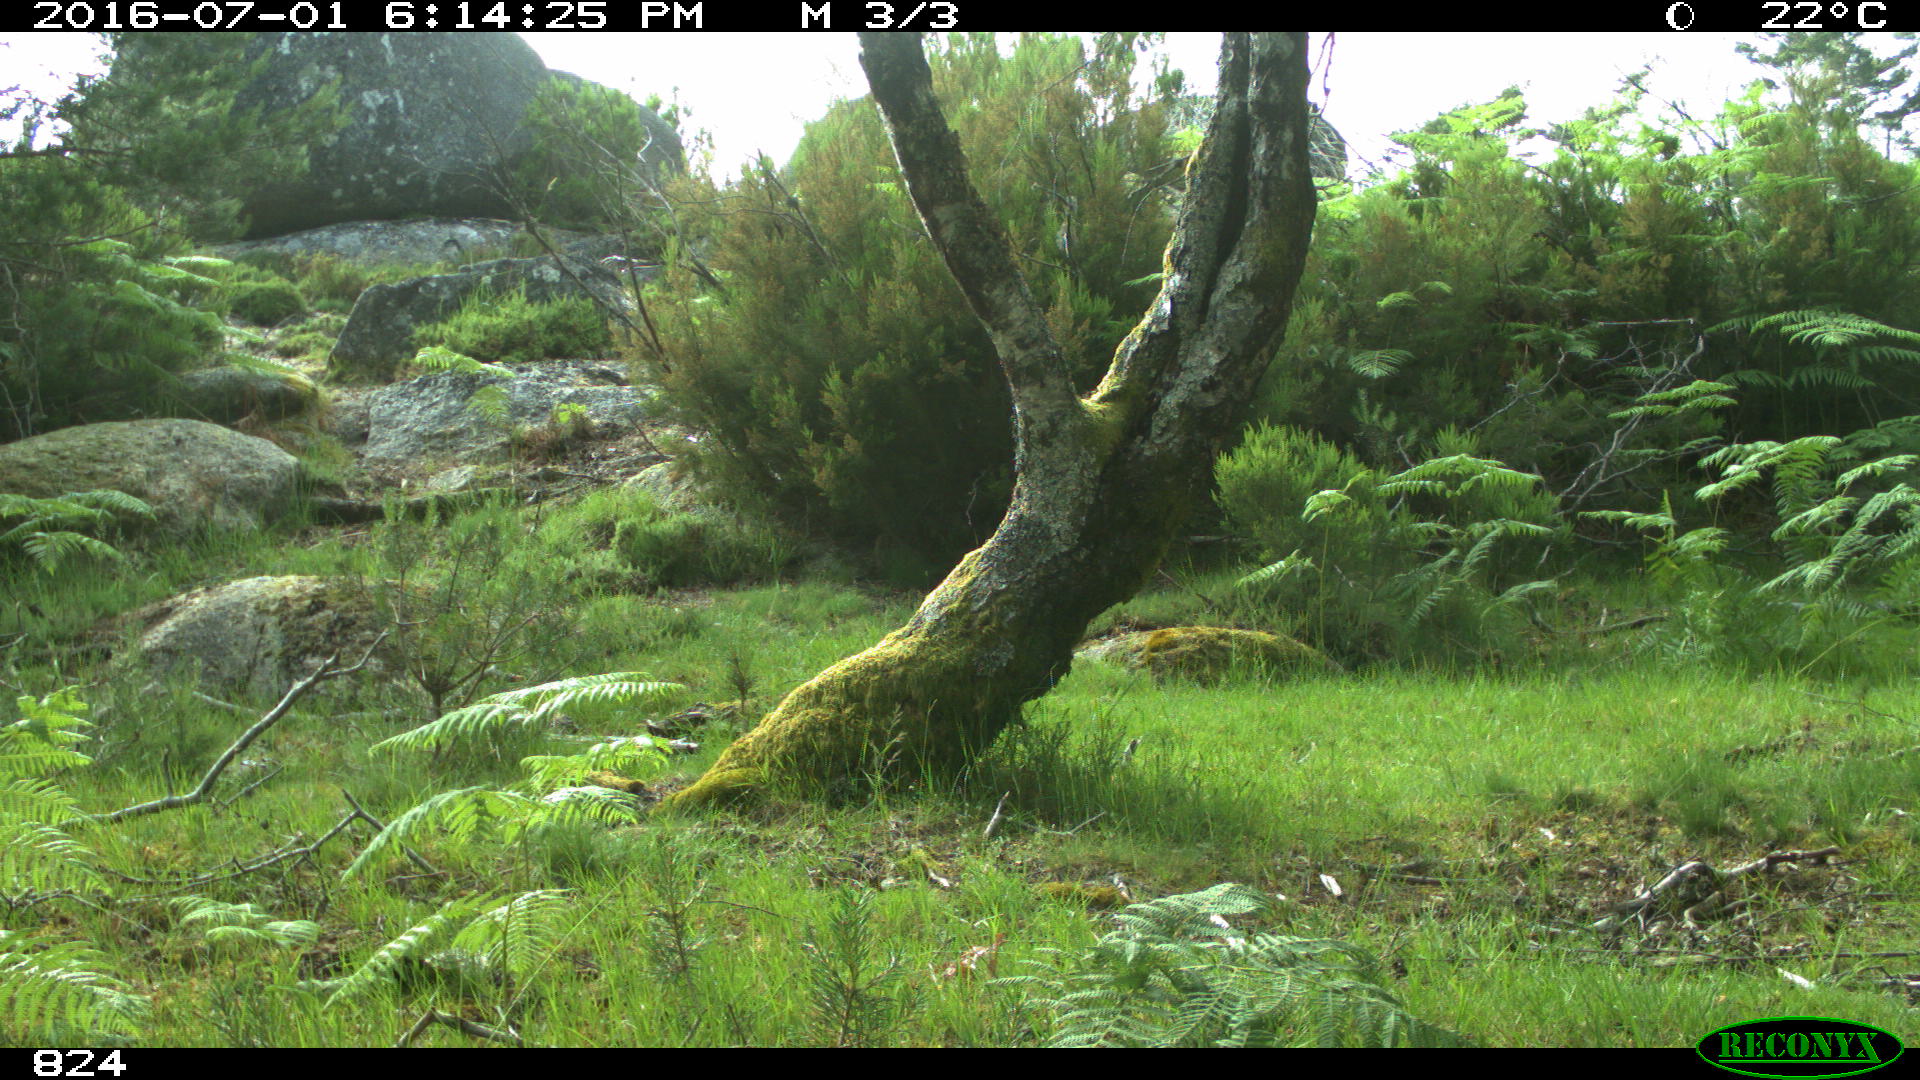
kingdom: Animalia
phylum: Chordata
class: Mammalia
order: Artiodactyla
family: Bovidae
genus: Bos
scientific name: Bos taurus
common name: Domesticated cattle
